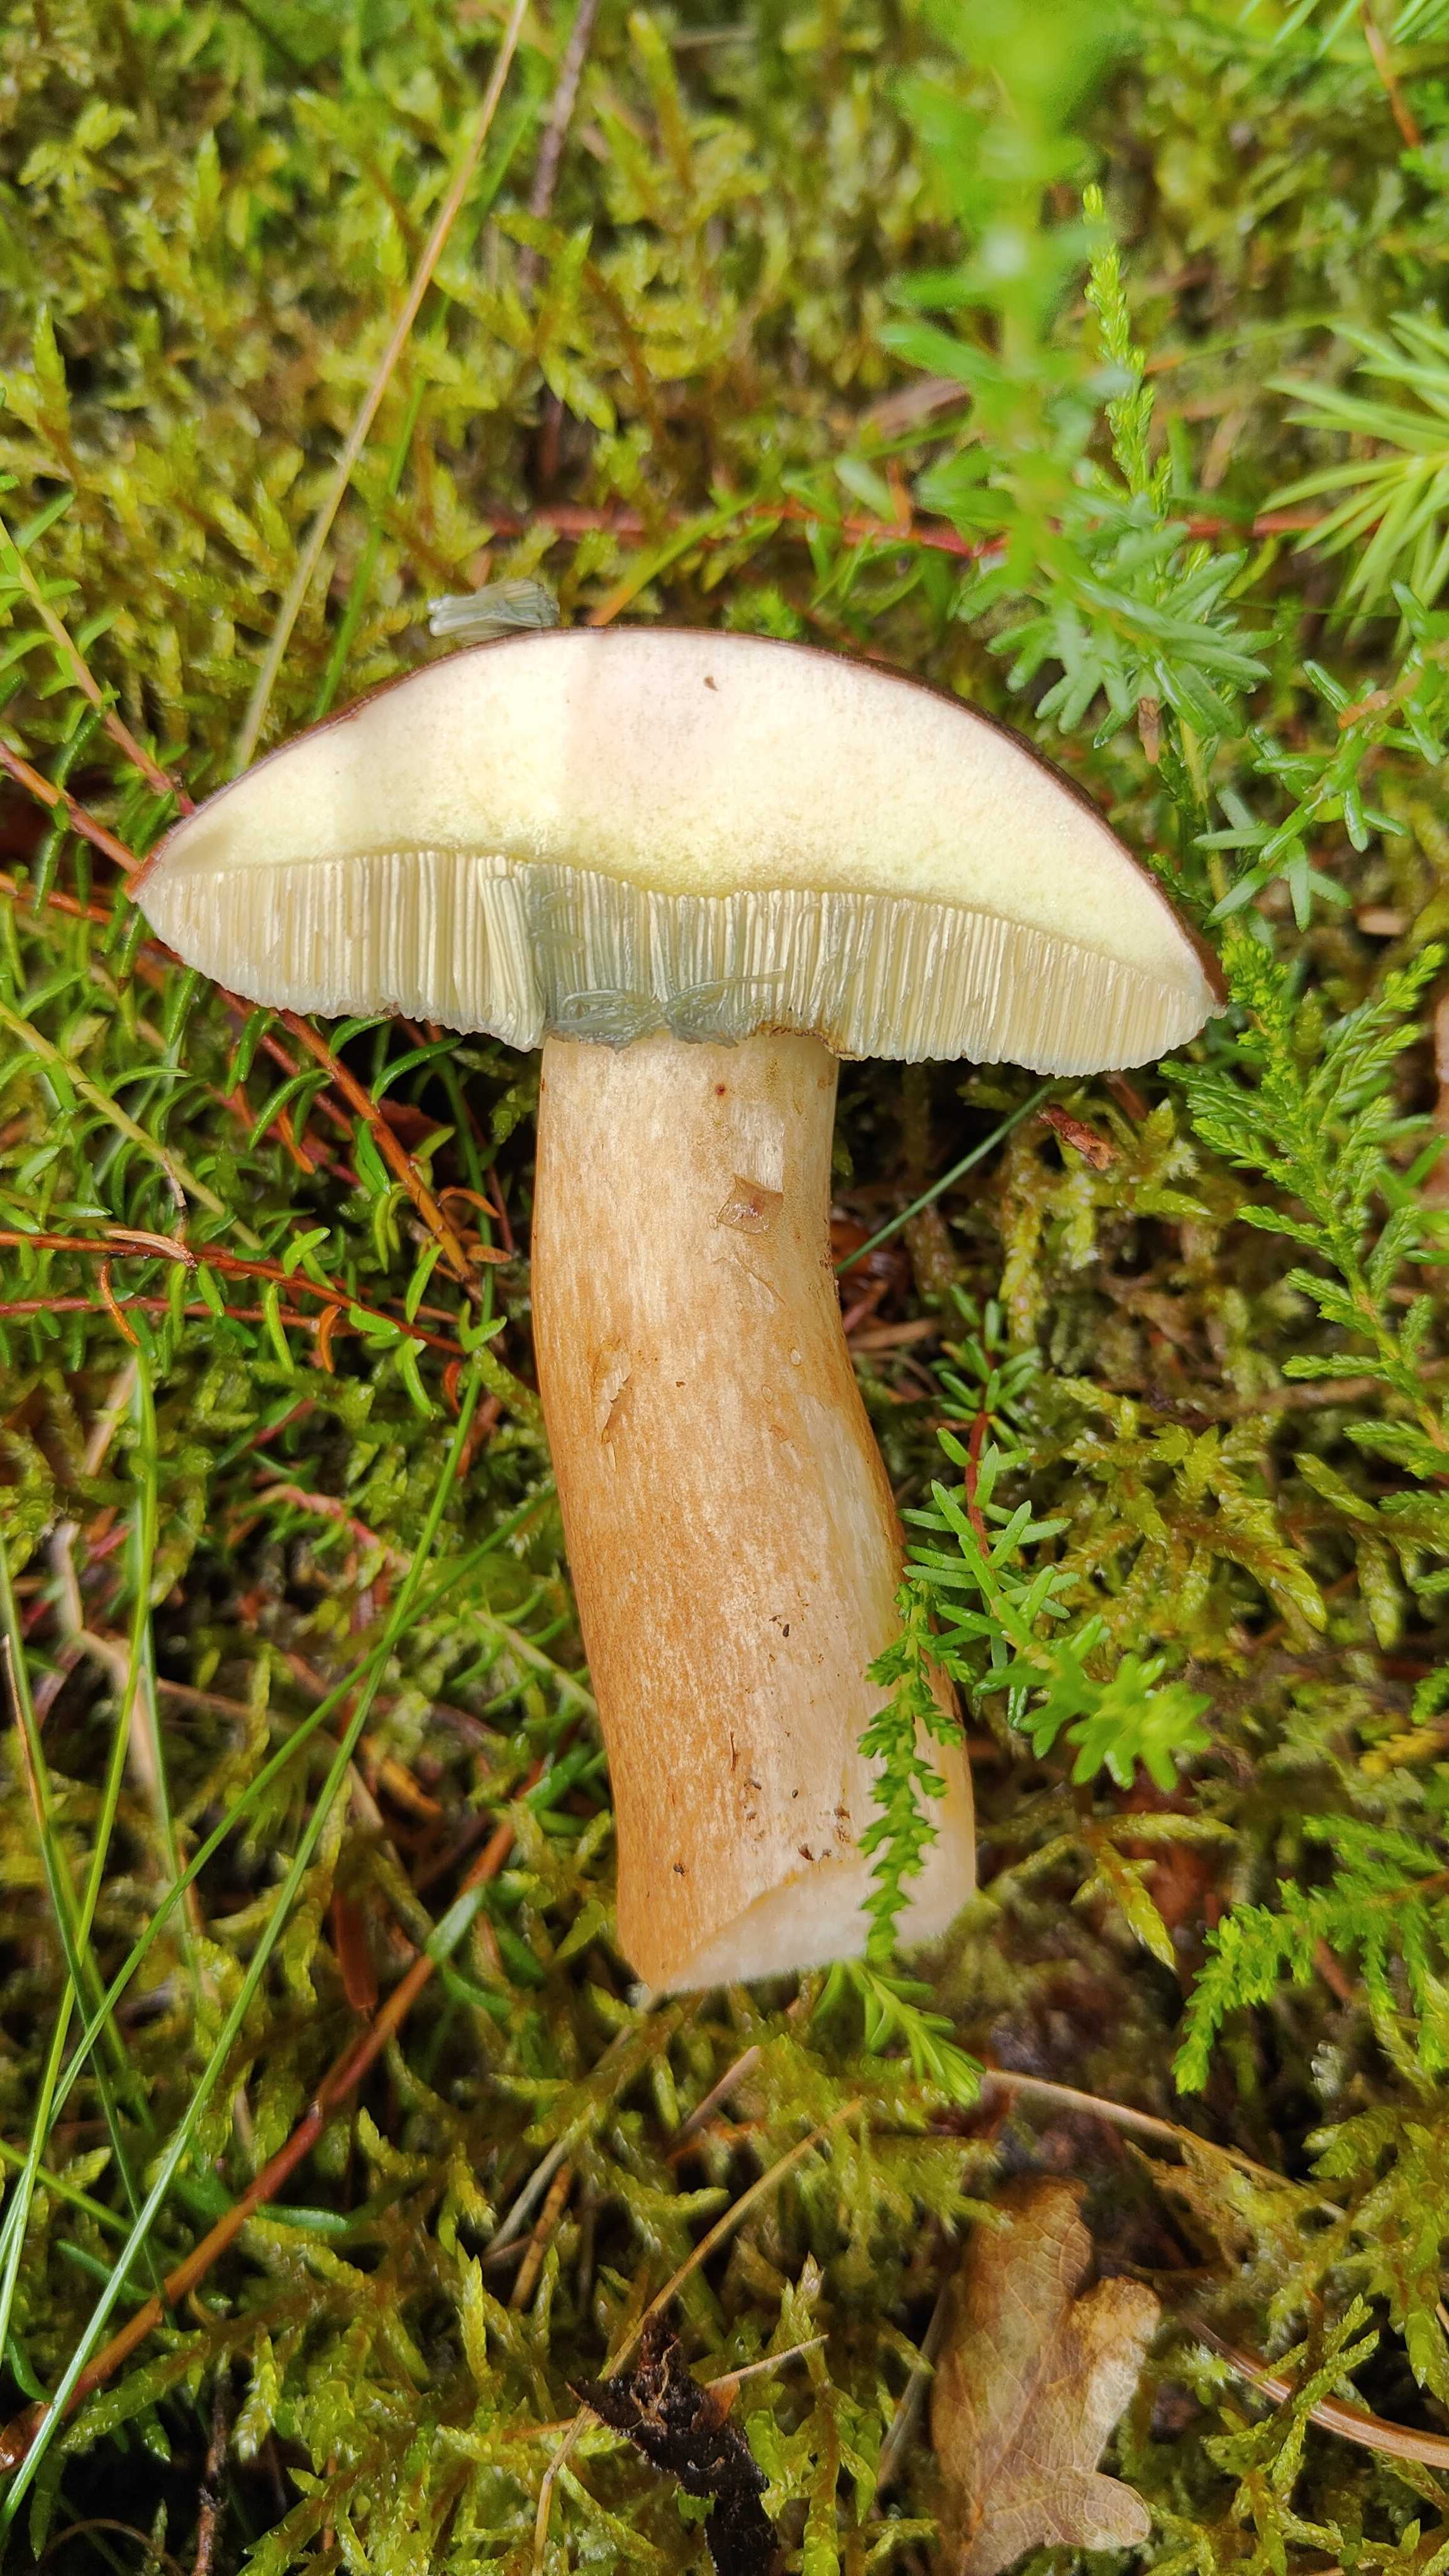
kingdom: Fungi
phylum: Basidiomycota
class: Agaricomycetes
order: Boletales
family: Boletaceae
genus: Imleria
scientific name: Imleria badia
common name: brunstokket rørhat
